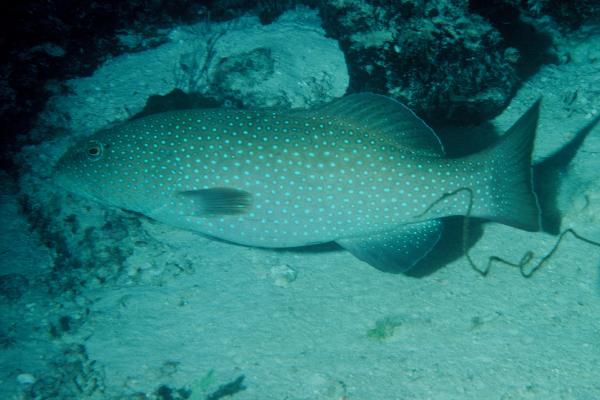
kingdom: Animalia
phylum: Chordata
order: Perciformes
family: Serranidae
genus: Plectropomus
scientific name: Plectropomus areolatus
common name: Squaretail coralgrouper
